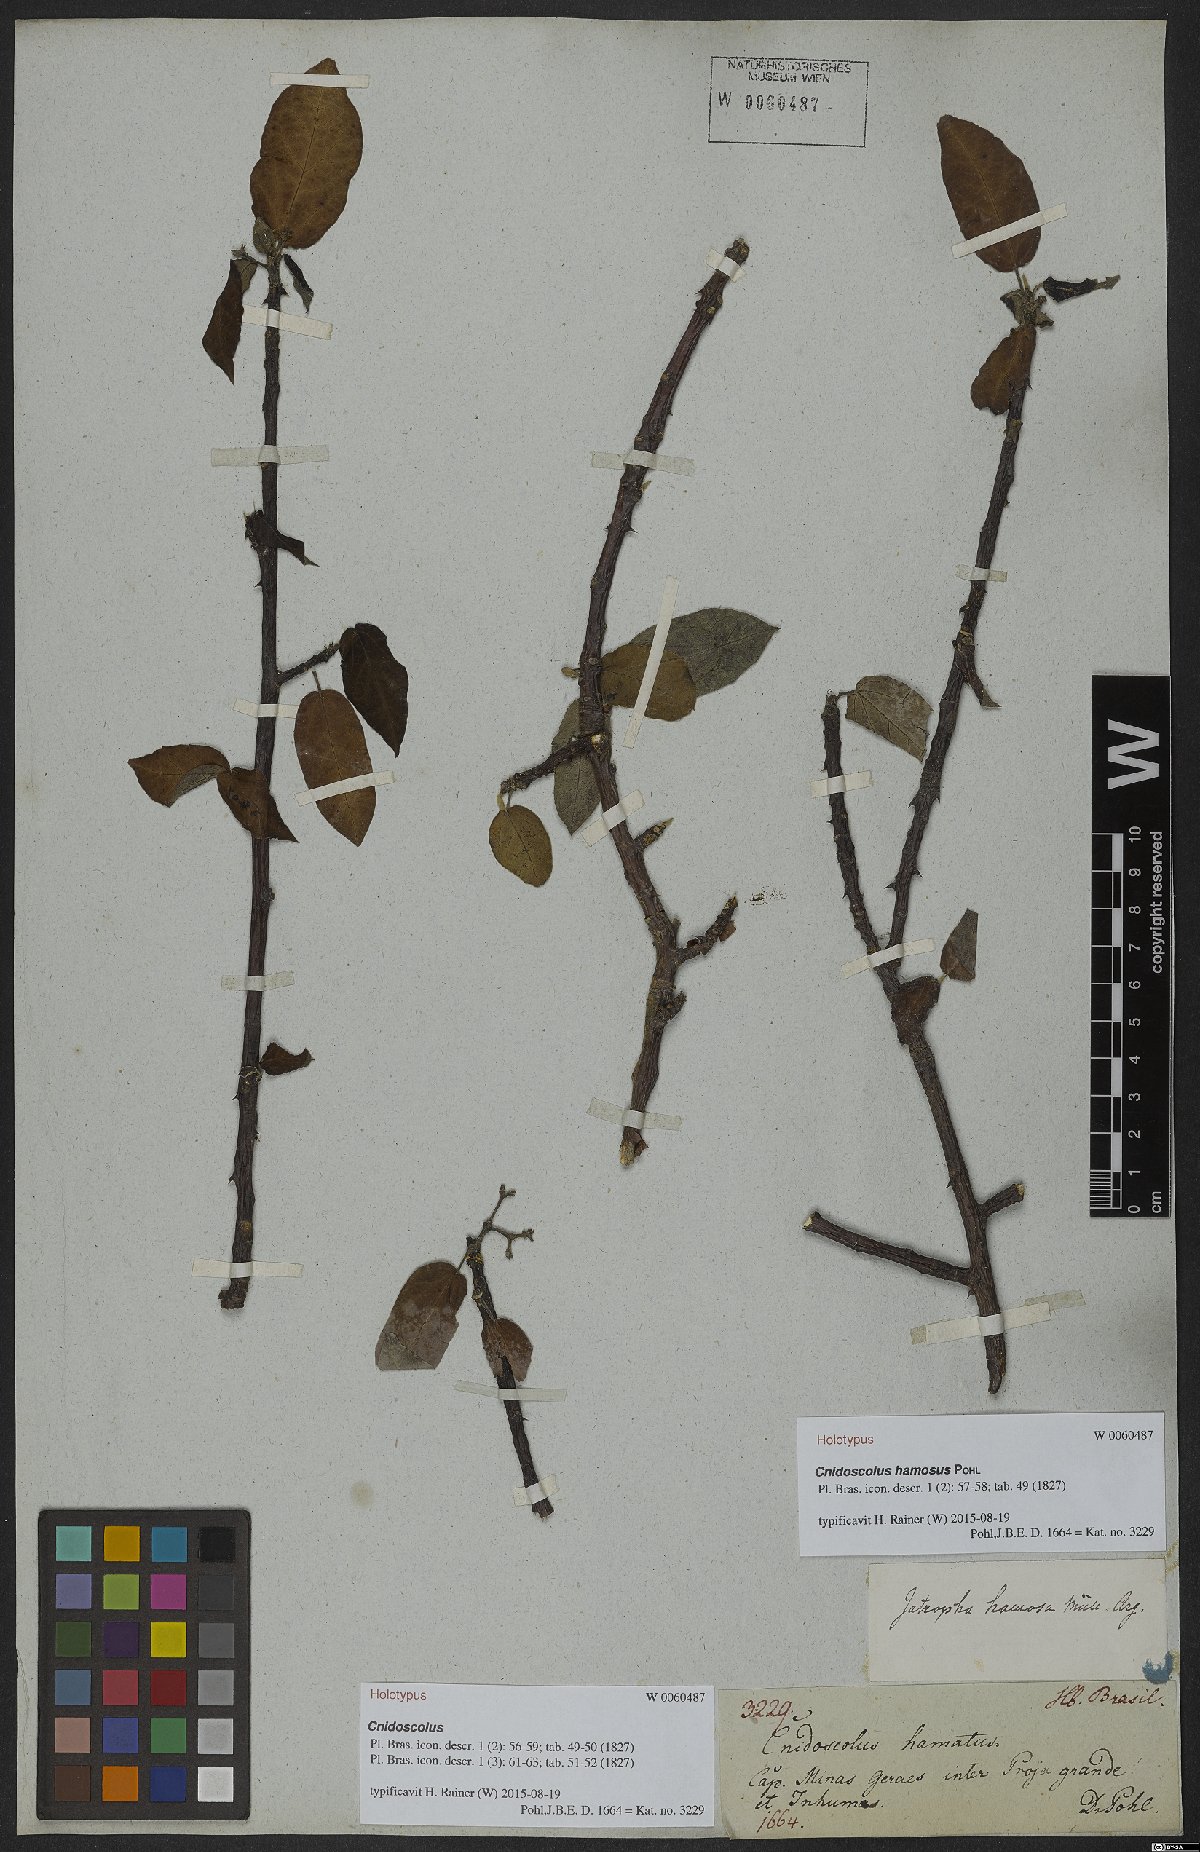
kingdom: Plantae
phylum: Tracheophyta
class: Magnoliopsida
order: Malpighiales
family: Euphorbiaceae
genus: Cnidoscolus
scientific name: Cnidoscolus hamosus
